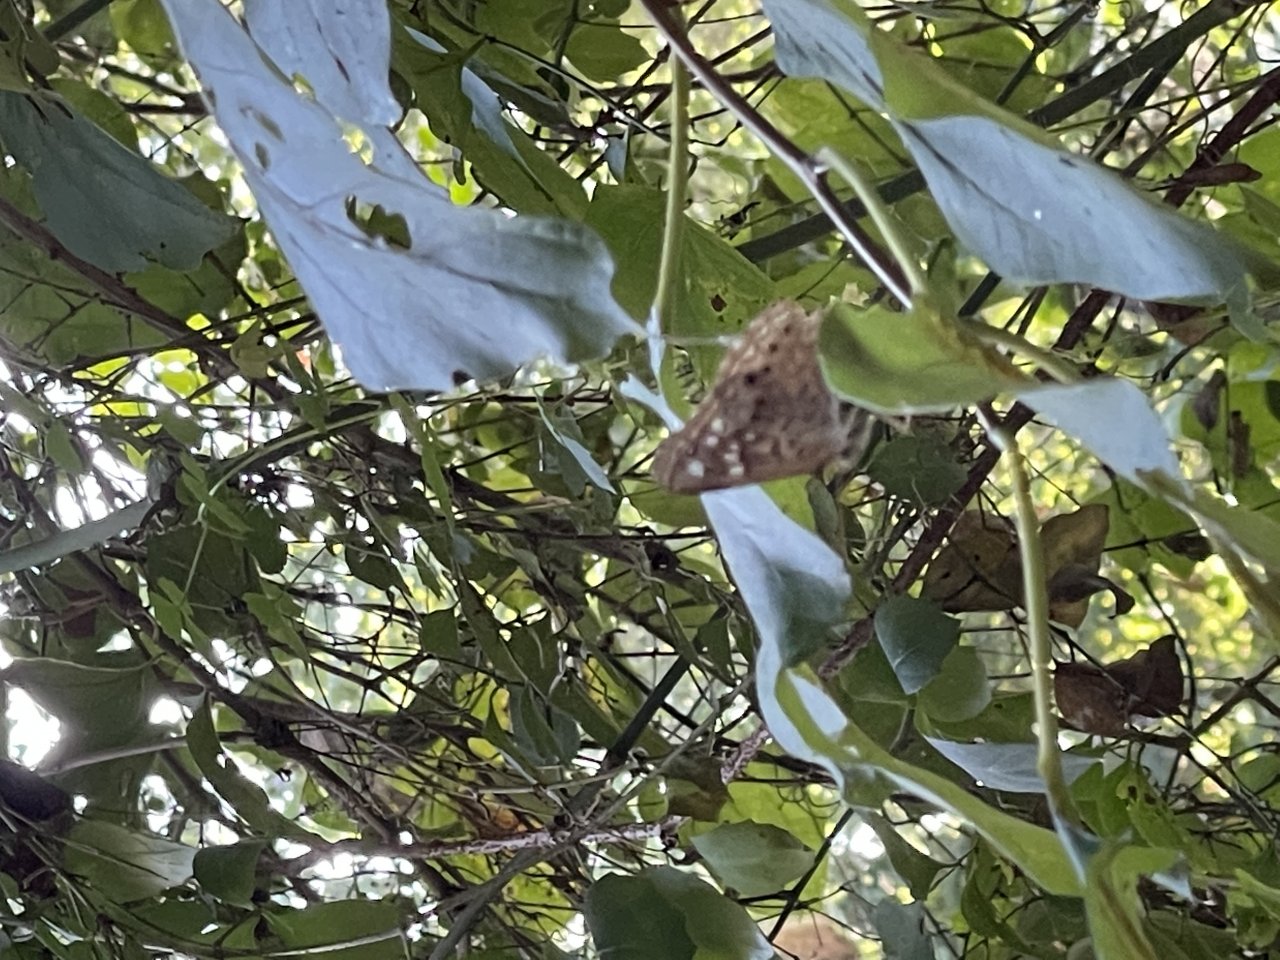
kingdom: Animalia
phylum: Arthropoda
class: Insecta
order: Lepidoptera
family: Nymphalidae
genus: Asterocampa
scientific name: Asterocampa celtis
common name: Hackberry Emperor
